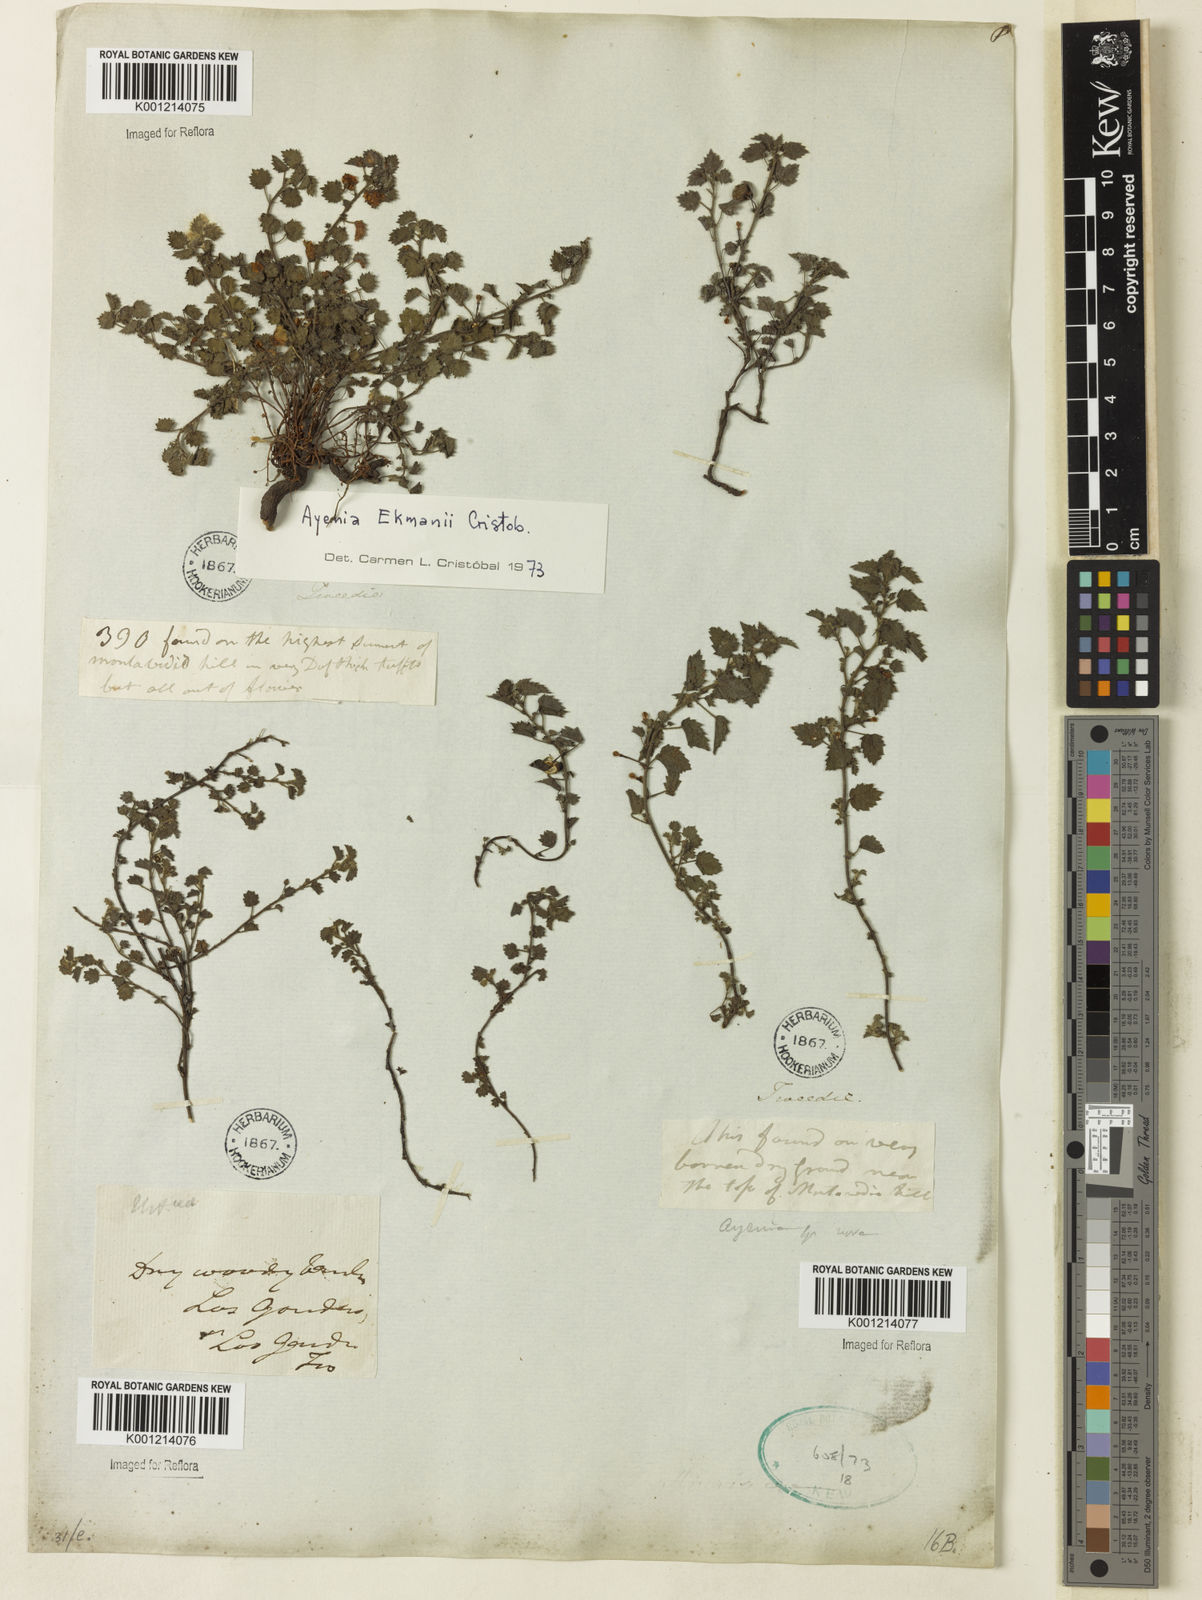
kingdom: Plantae
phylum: Tracheophyta
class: Magnoliopsida
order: Malvales
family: Malvaceae
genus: Ayenia
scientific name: Ayenia
